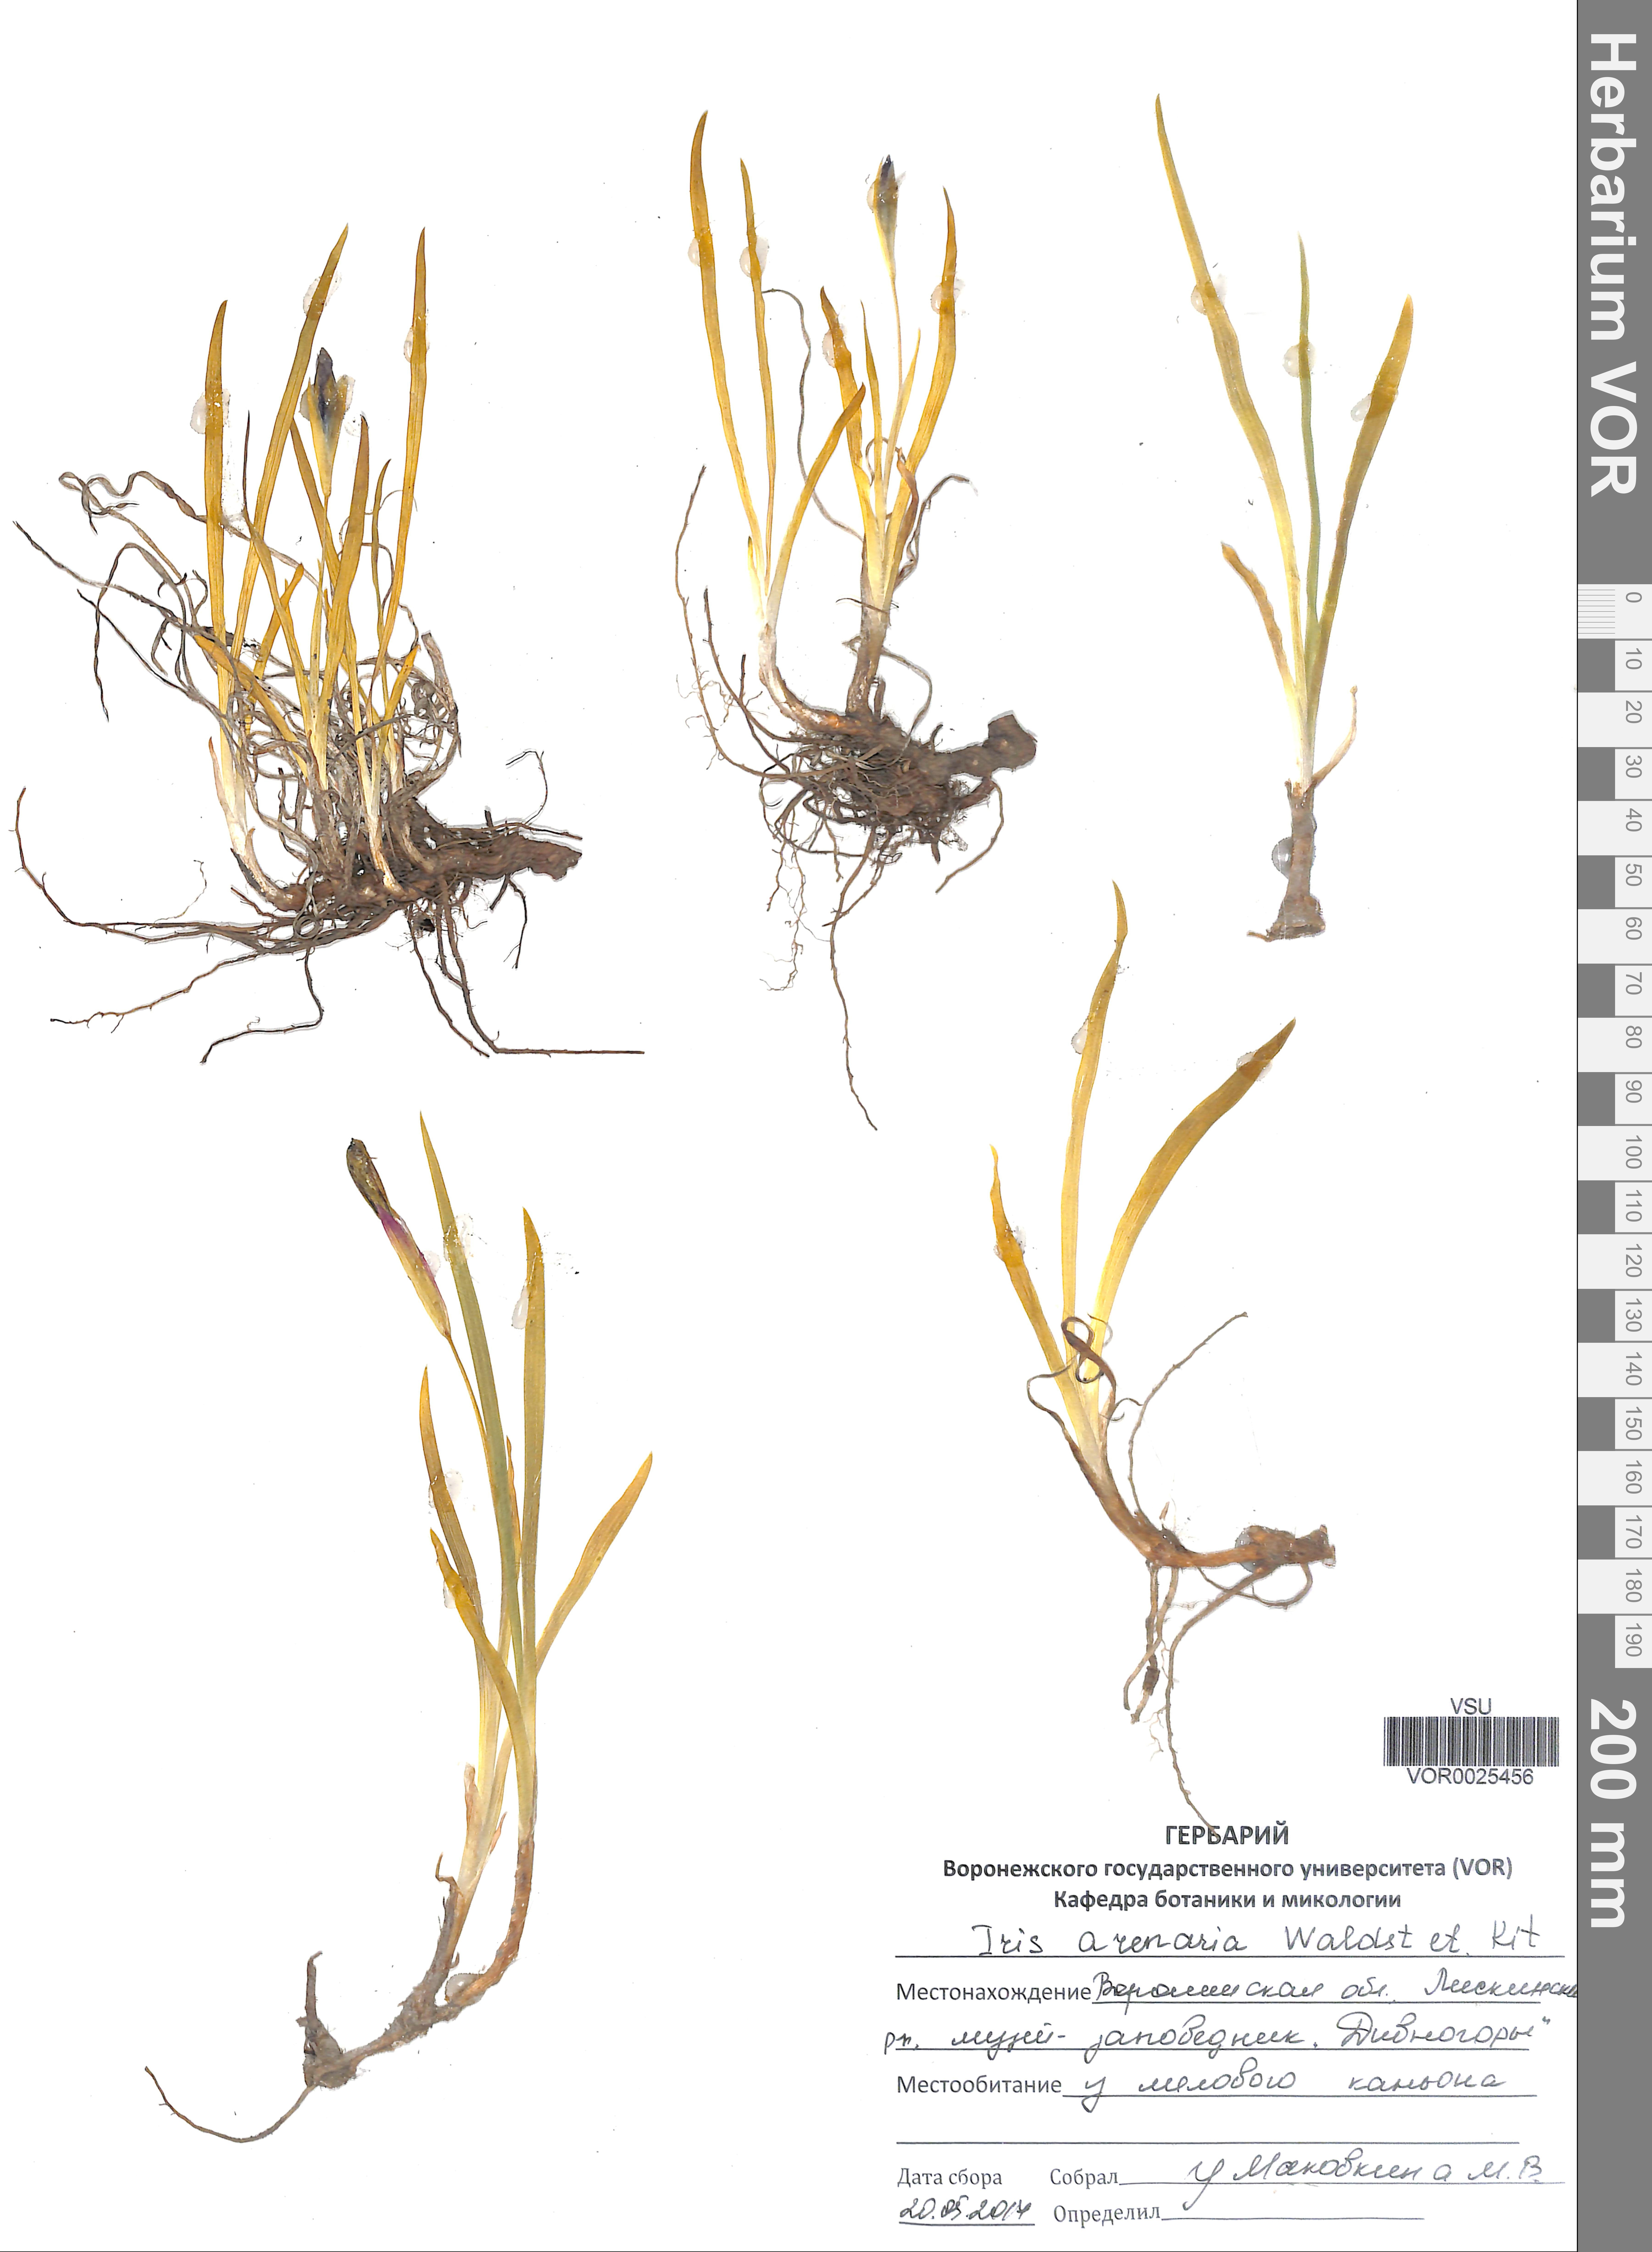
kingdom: Plantae
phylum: Tracheophyta
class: Liliopsida
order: Asparagales
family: Iridaceae
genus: Iris
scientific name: Iris arenaria
